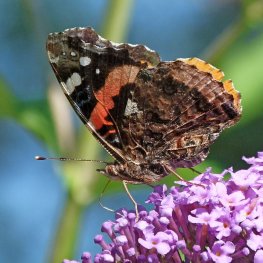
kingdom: Animalia
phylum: Arthropoda
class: Insecta
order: Lepidoptera
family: Nymphalidae
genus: Vanessa
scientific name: Vanessa atalanta
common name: Red Admiral
